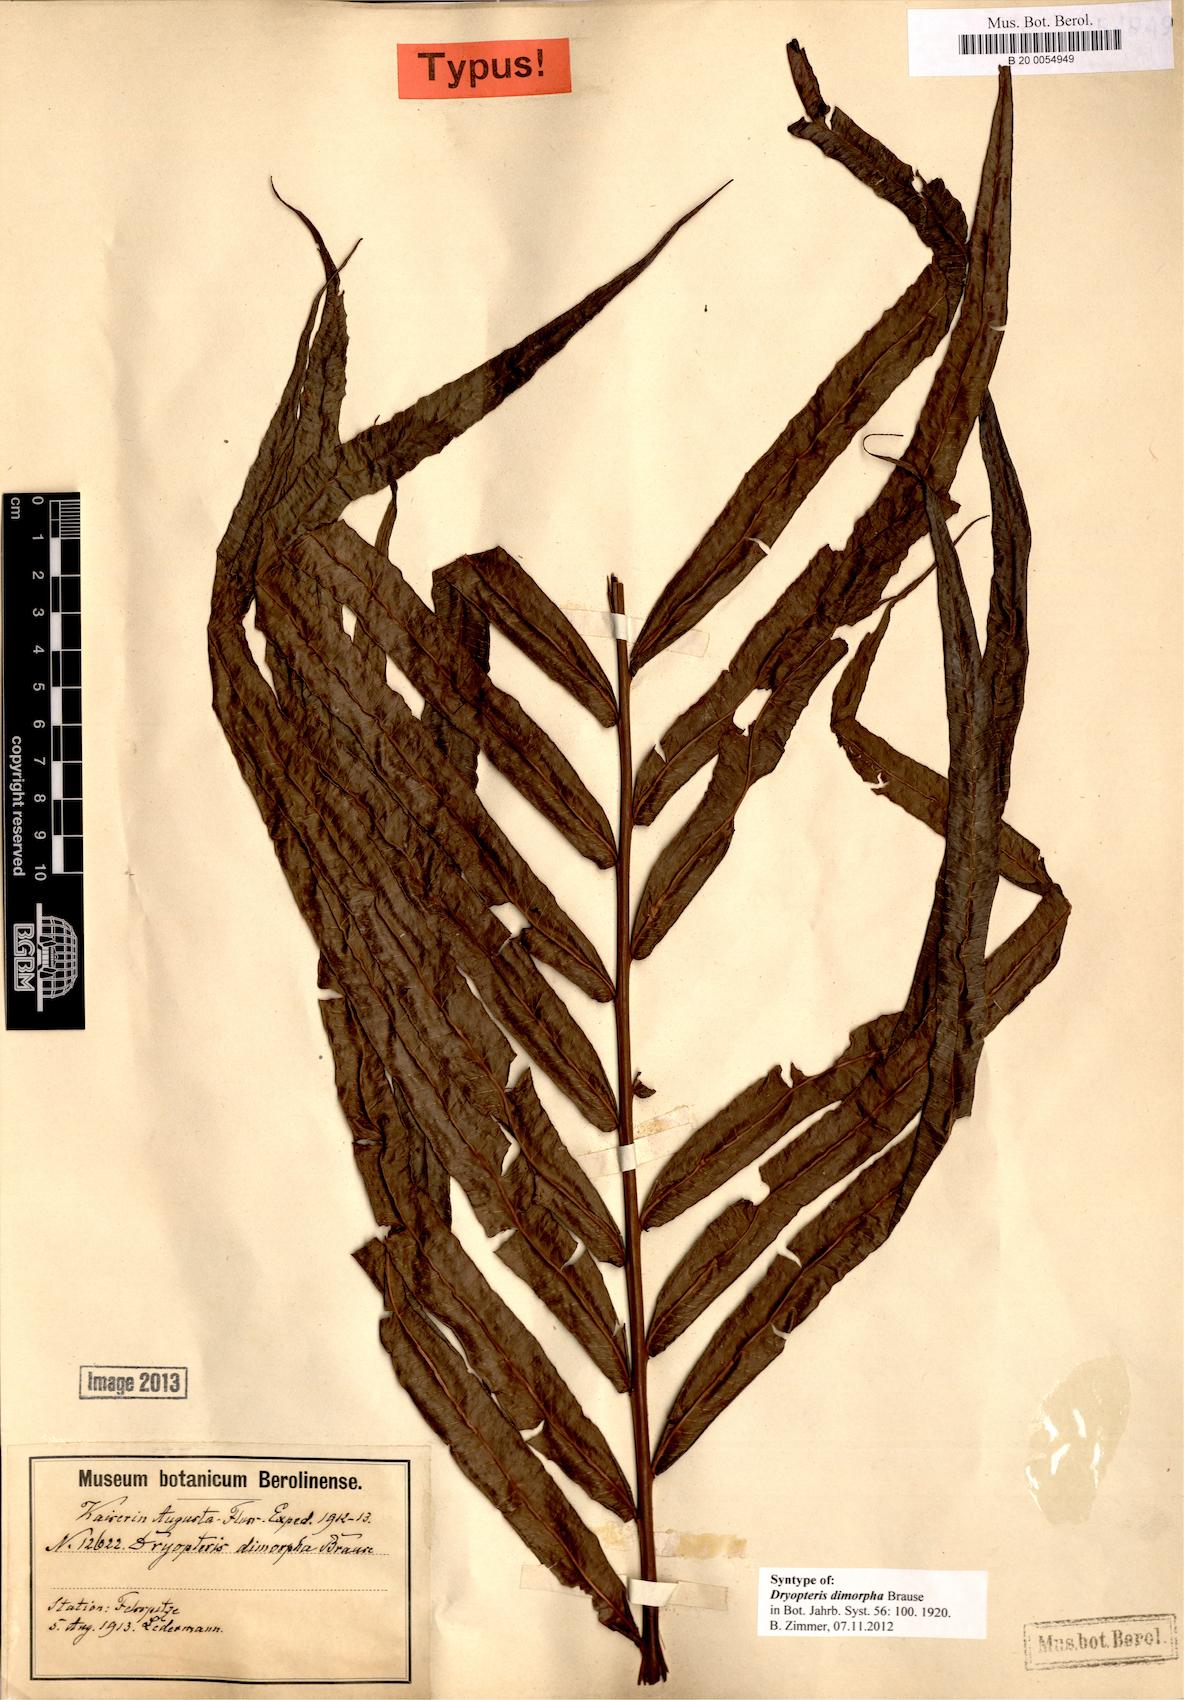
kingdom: Plantae
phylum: Tracheophyta
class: Polypodiopsida
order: Polypodiales
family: Thelypteridaceae
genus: Sphaerostephanos
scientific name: Sphaerostephanos dimorphus
